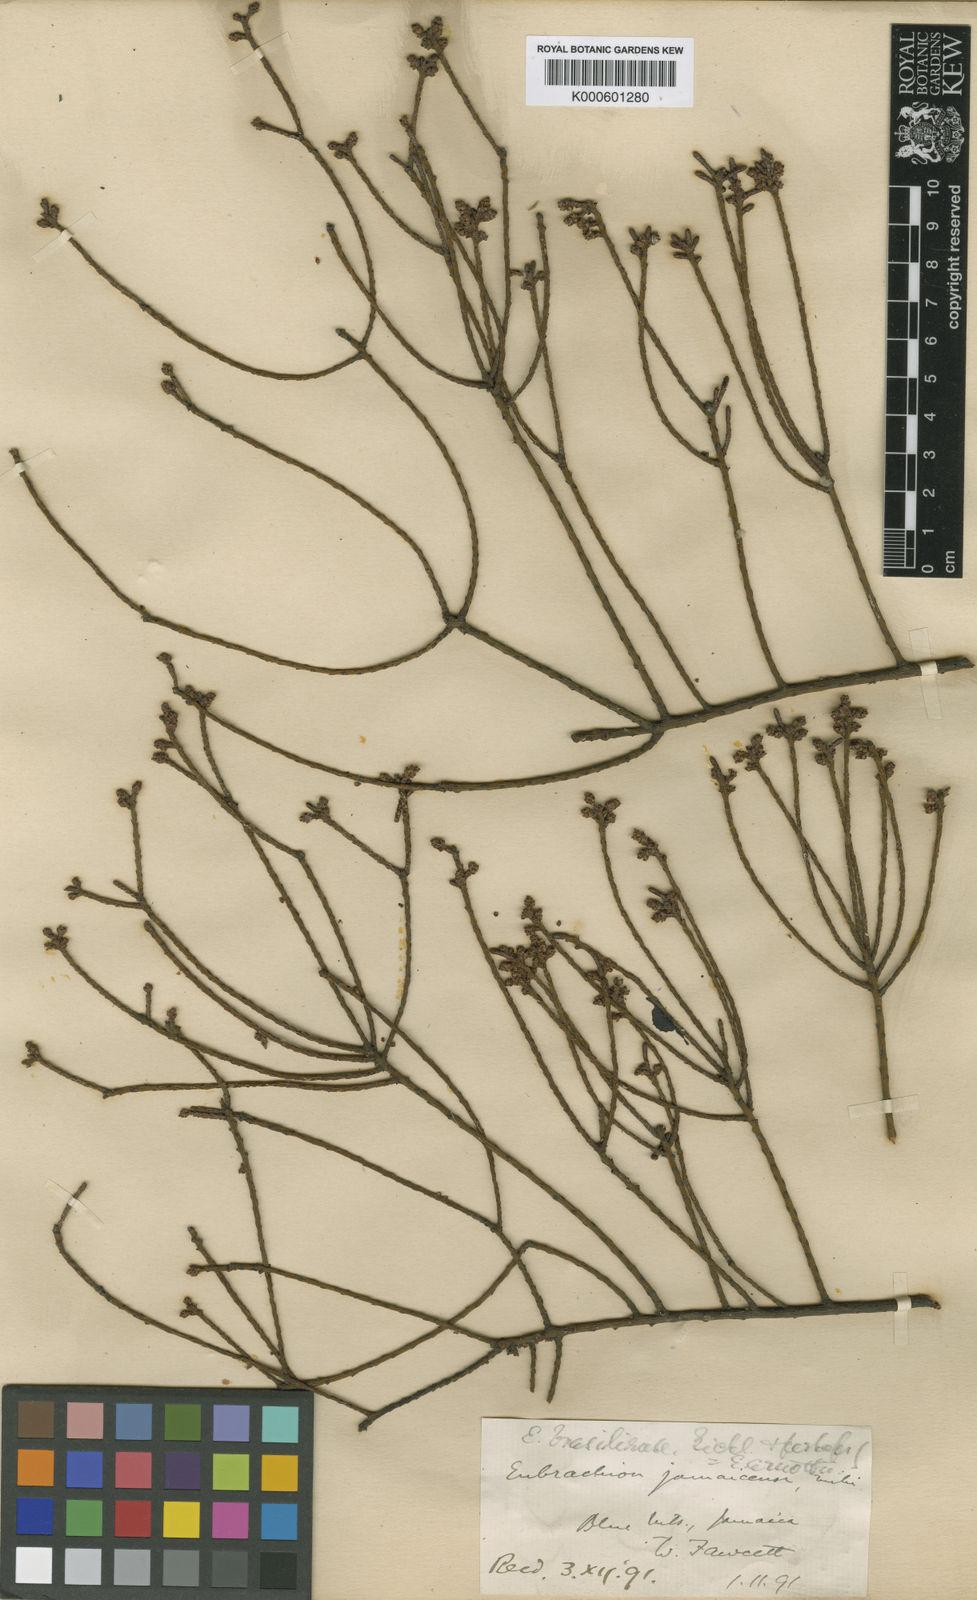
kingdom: Plantae
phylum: Tracheophyta
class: Magnoliopsida
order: Santalales
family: Santalaceae
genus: Eubrachion
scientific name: Eubrachion ambiguum
